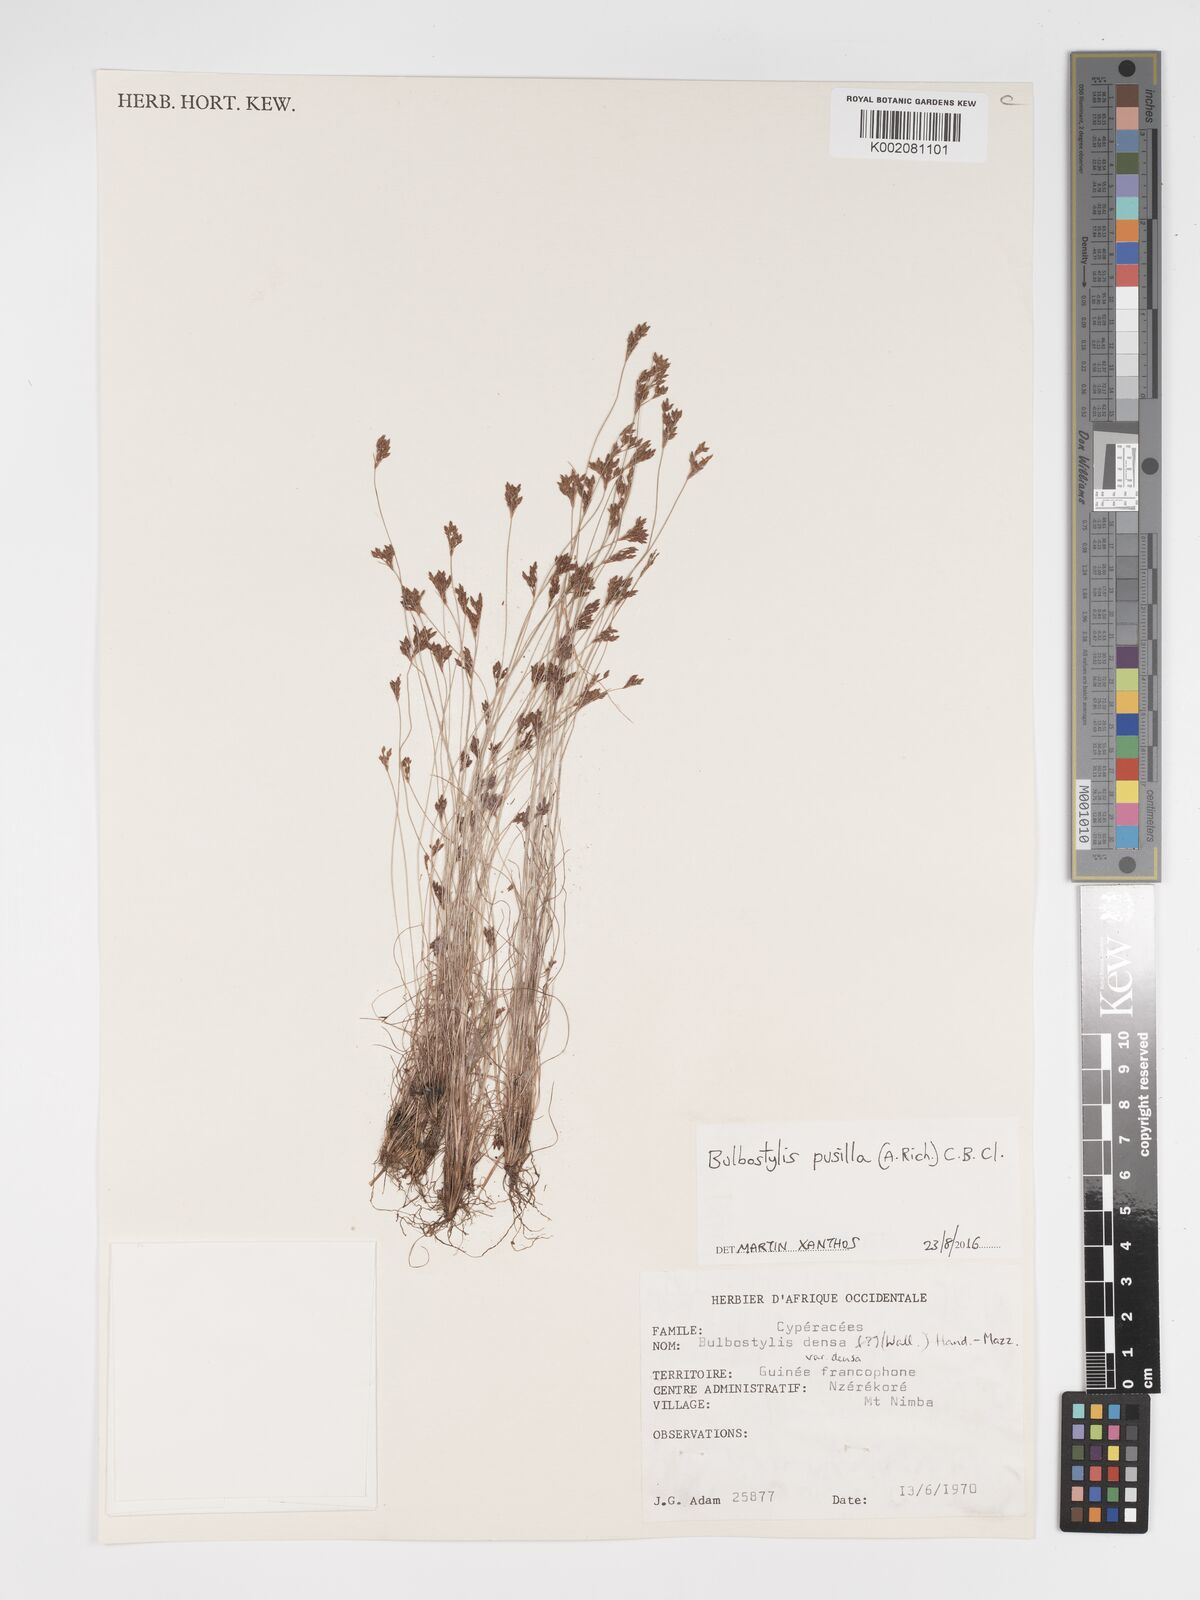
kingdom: Plantae
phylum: Tracheophyta
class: Liliopsida
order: Poales
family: Cyperaceae
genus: Bulbostylis
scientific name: Bulbostylis pusilla
